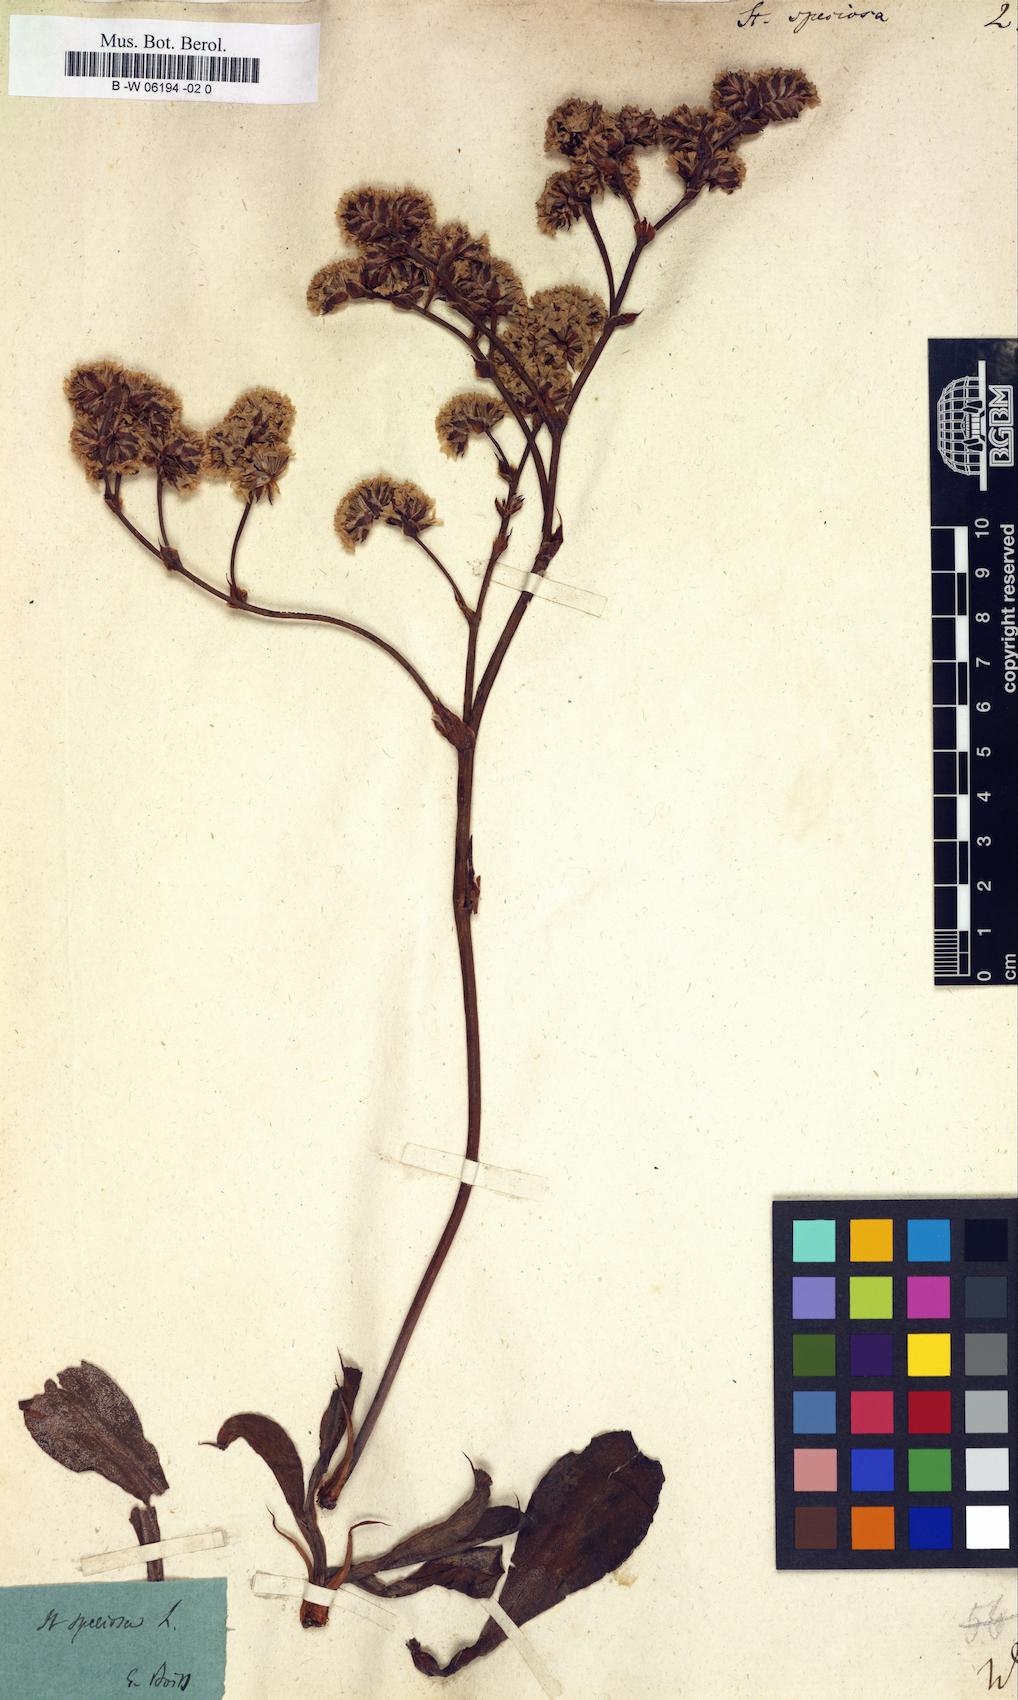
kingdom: Plantae
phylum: Tracheophyta
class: Magnoliopsida
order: Caryophyllales
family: Plumbaginaceae
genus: Goniolimon
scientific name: Goniolimon
